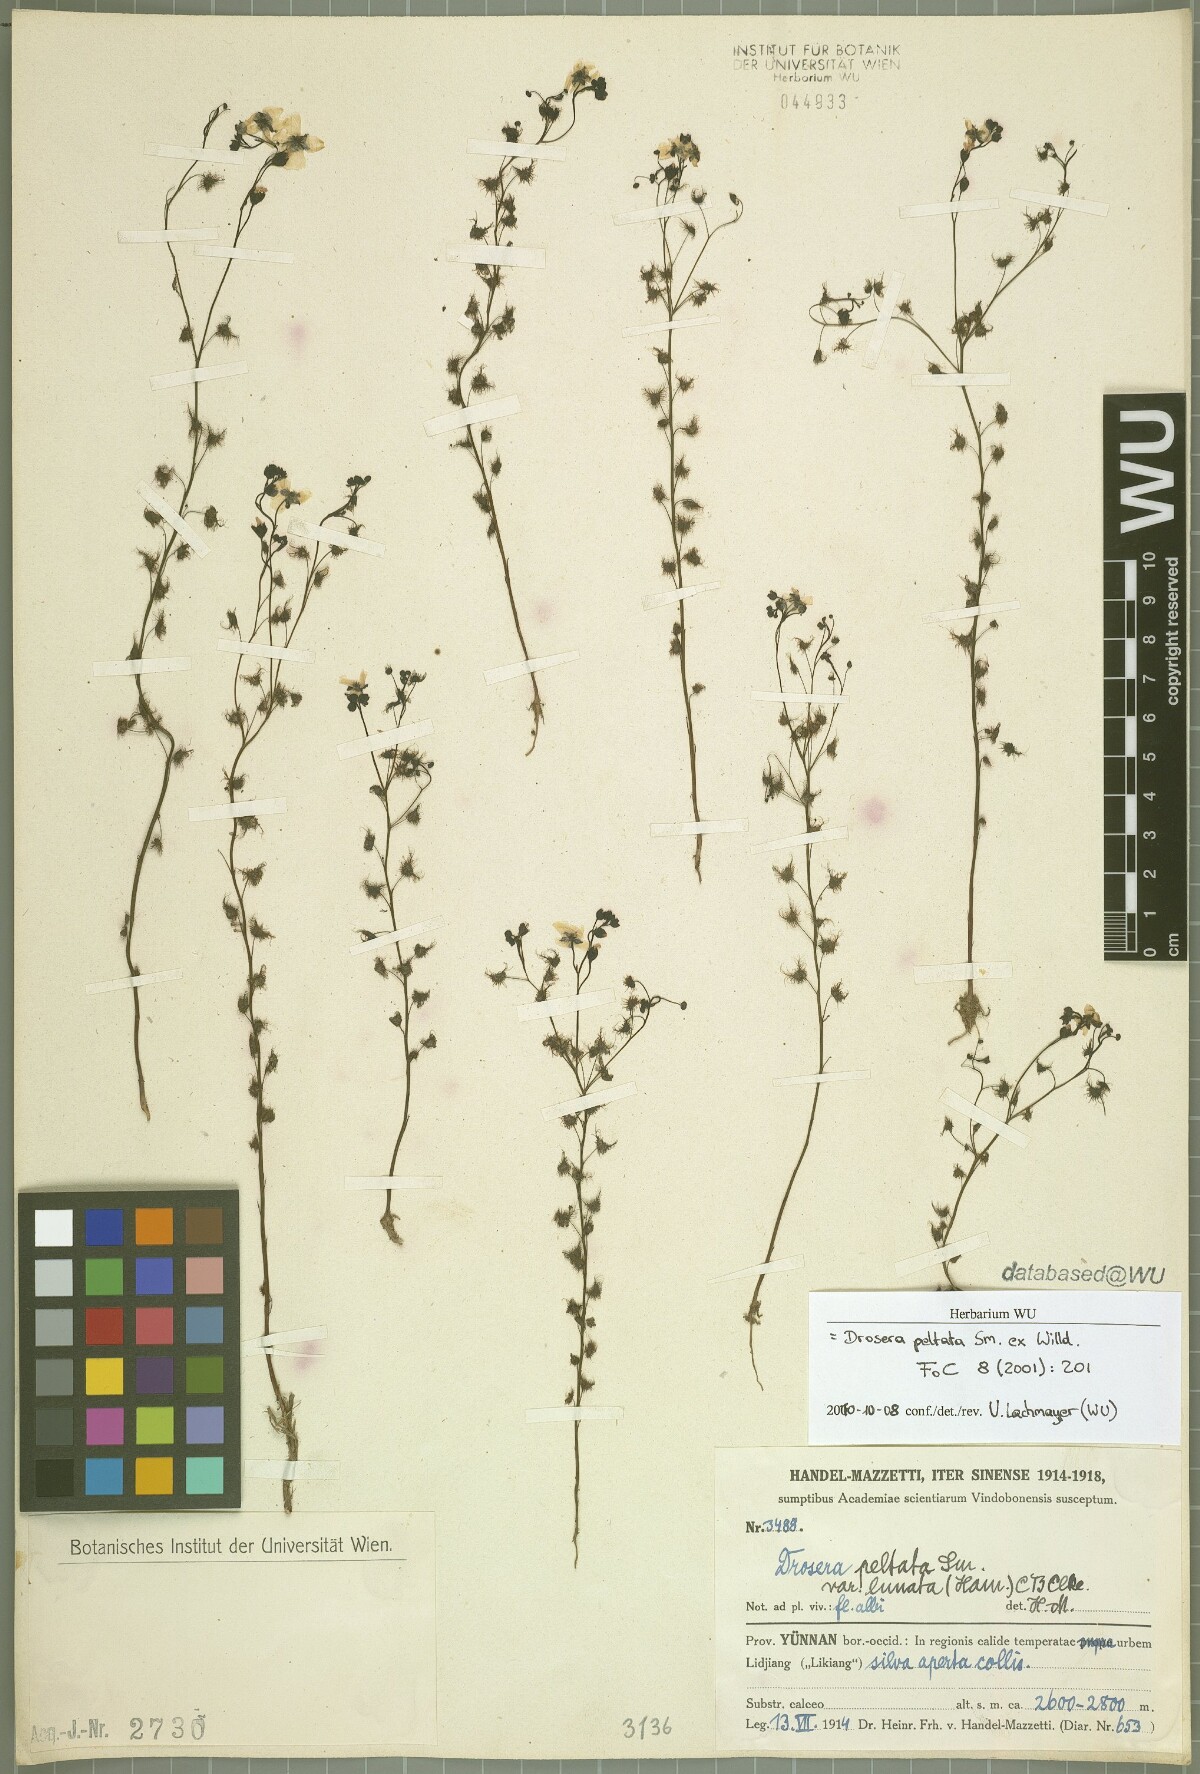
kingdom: Plantae
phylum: Tracheophyta
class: Magnoliopsida
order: Caryophyllales
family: Droseraceae
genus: Drosera
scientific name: Drosera peltata
